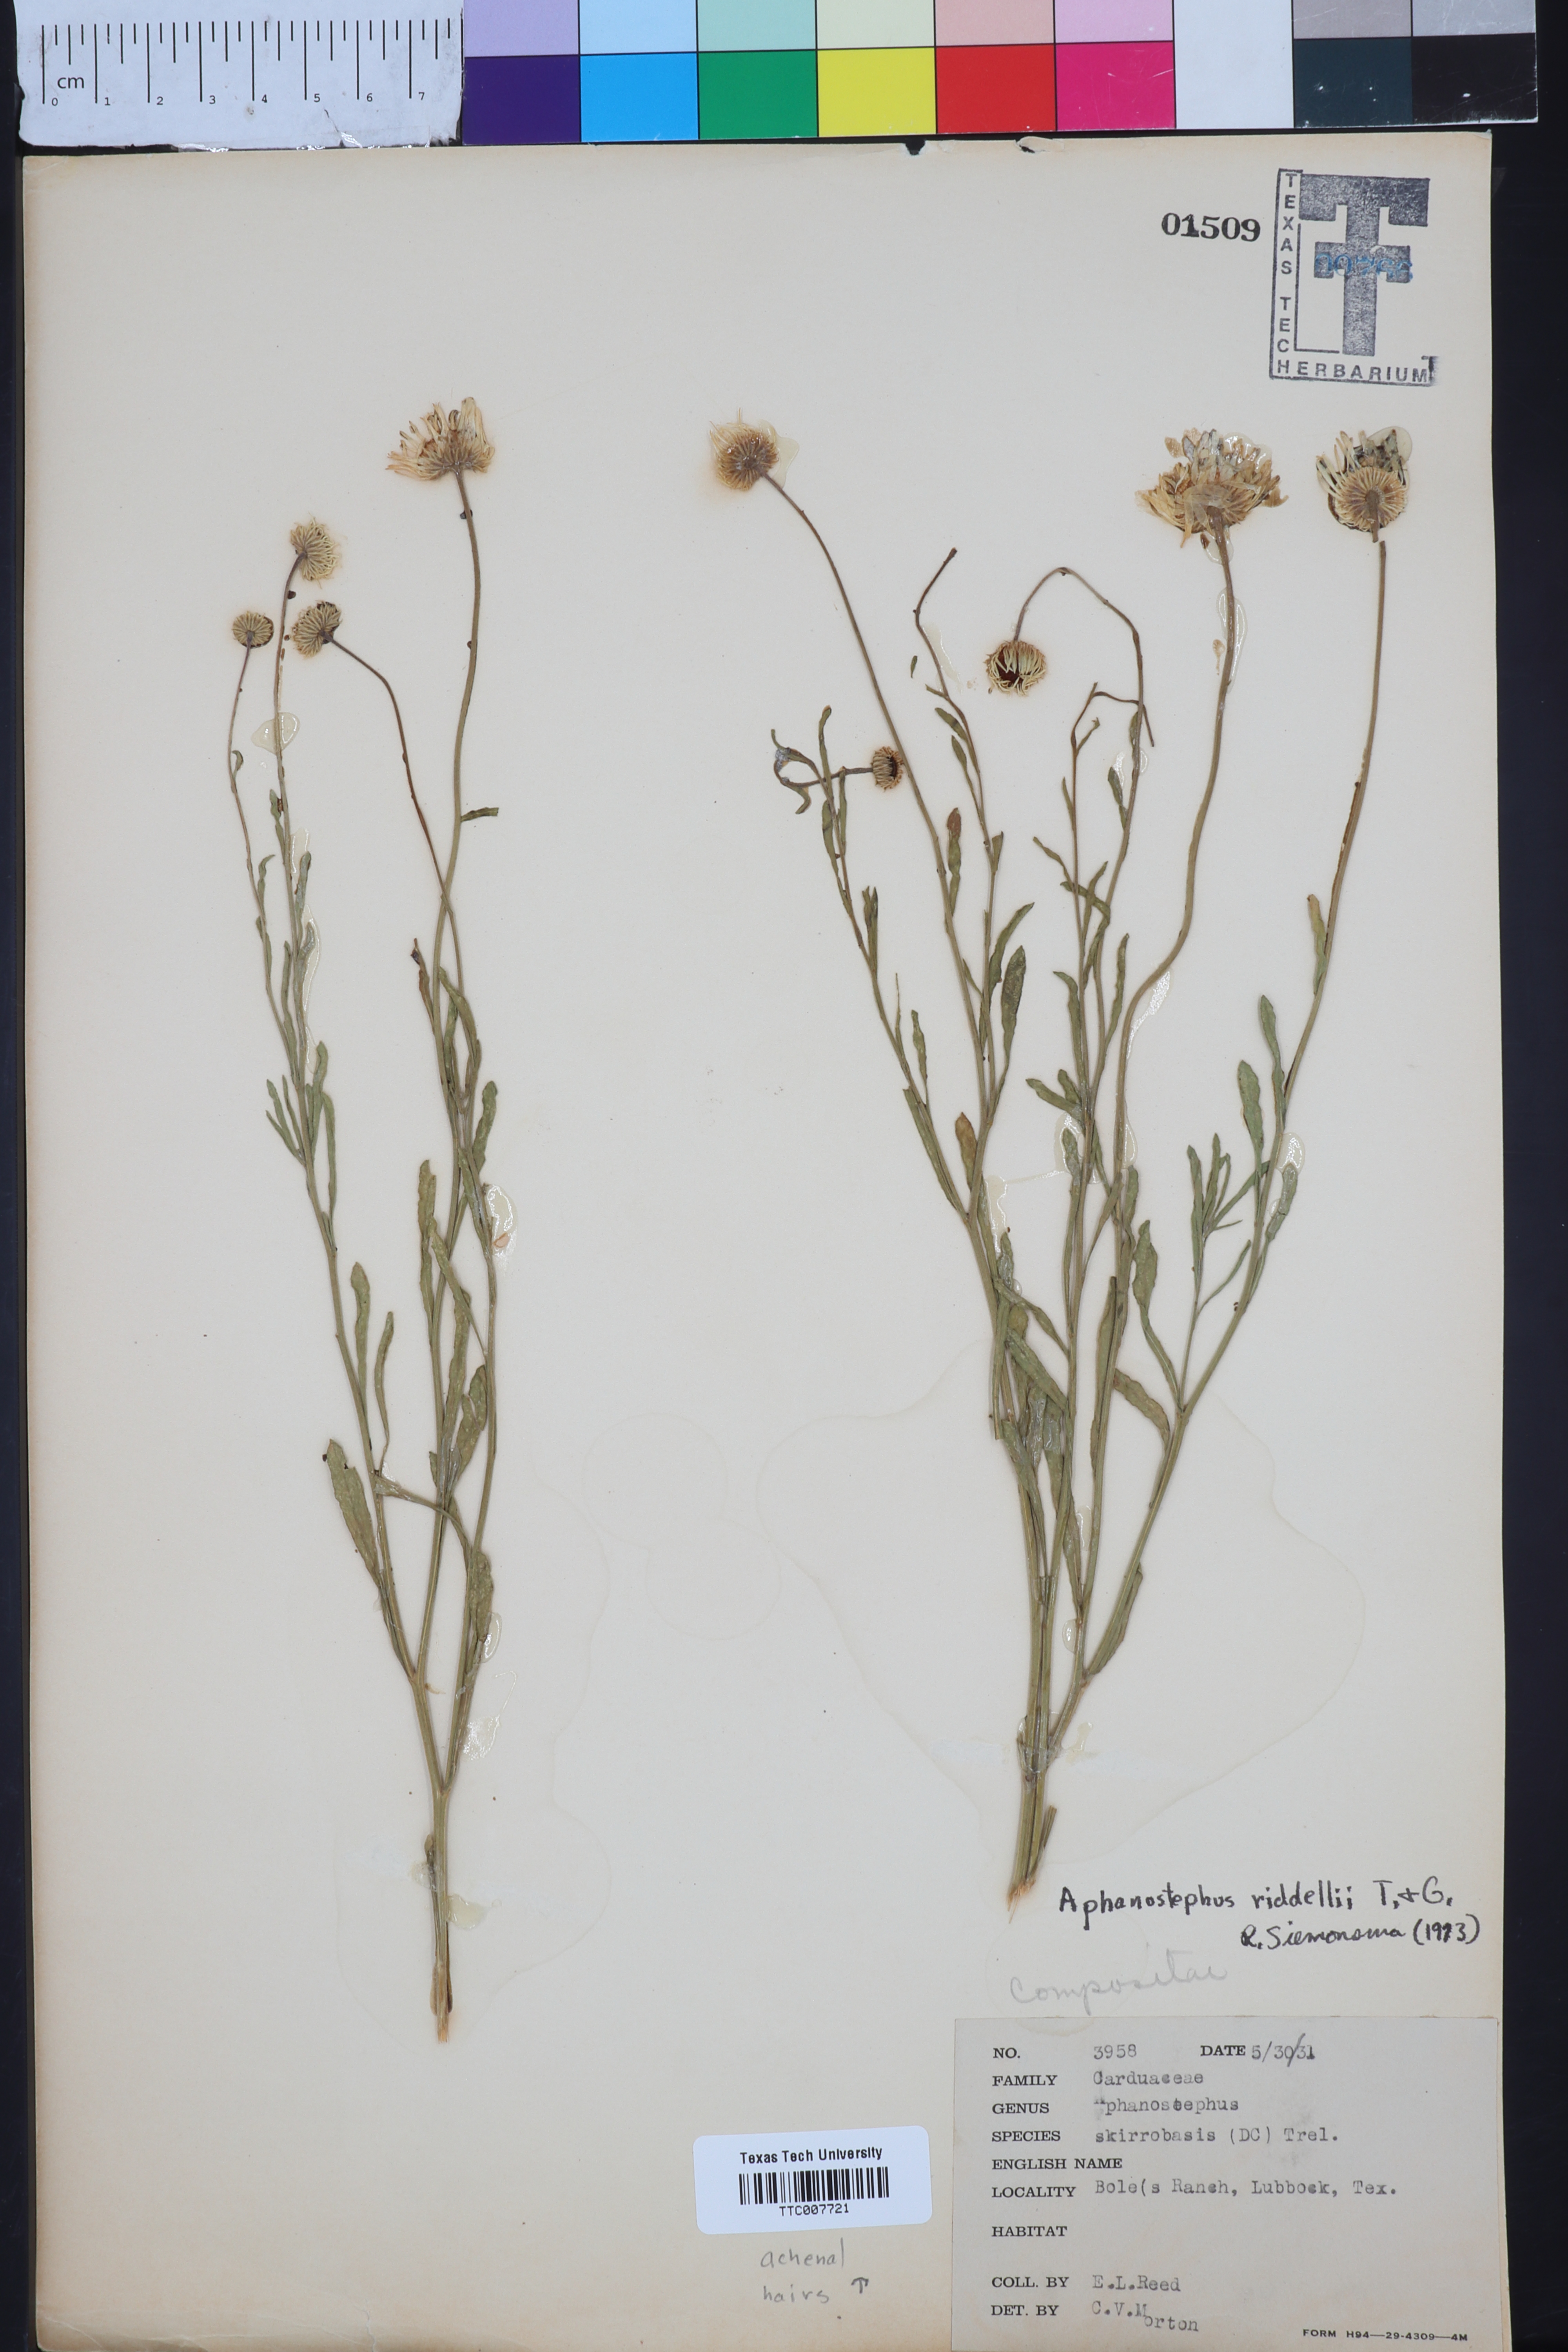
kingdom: Plantae
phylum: Tracheophyta
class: Magnoliopsida
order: Asterales
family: Asteraceae
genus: Aphanostephus
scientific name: Aphanostephus riddellii
